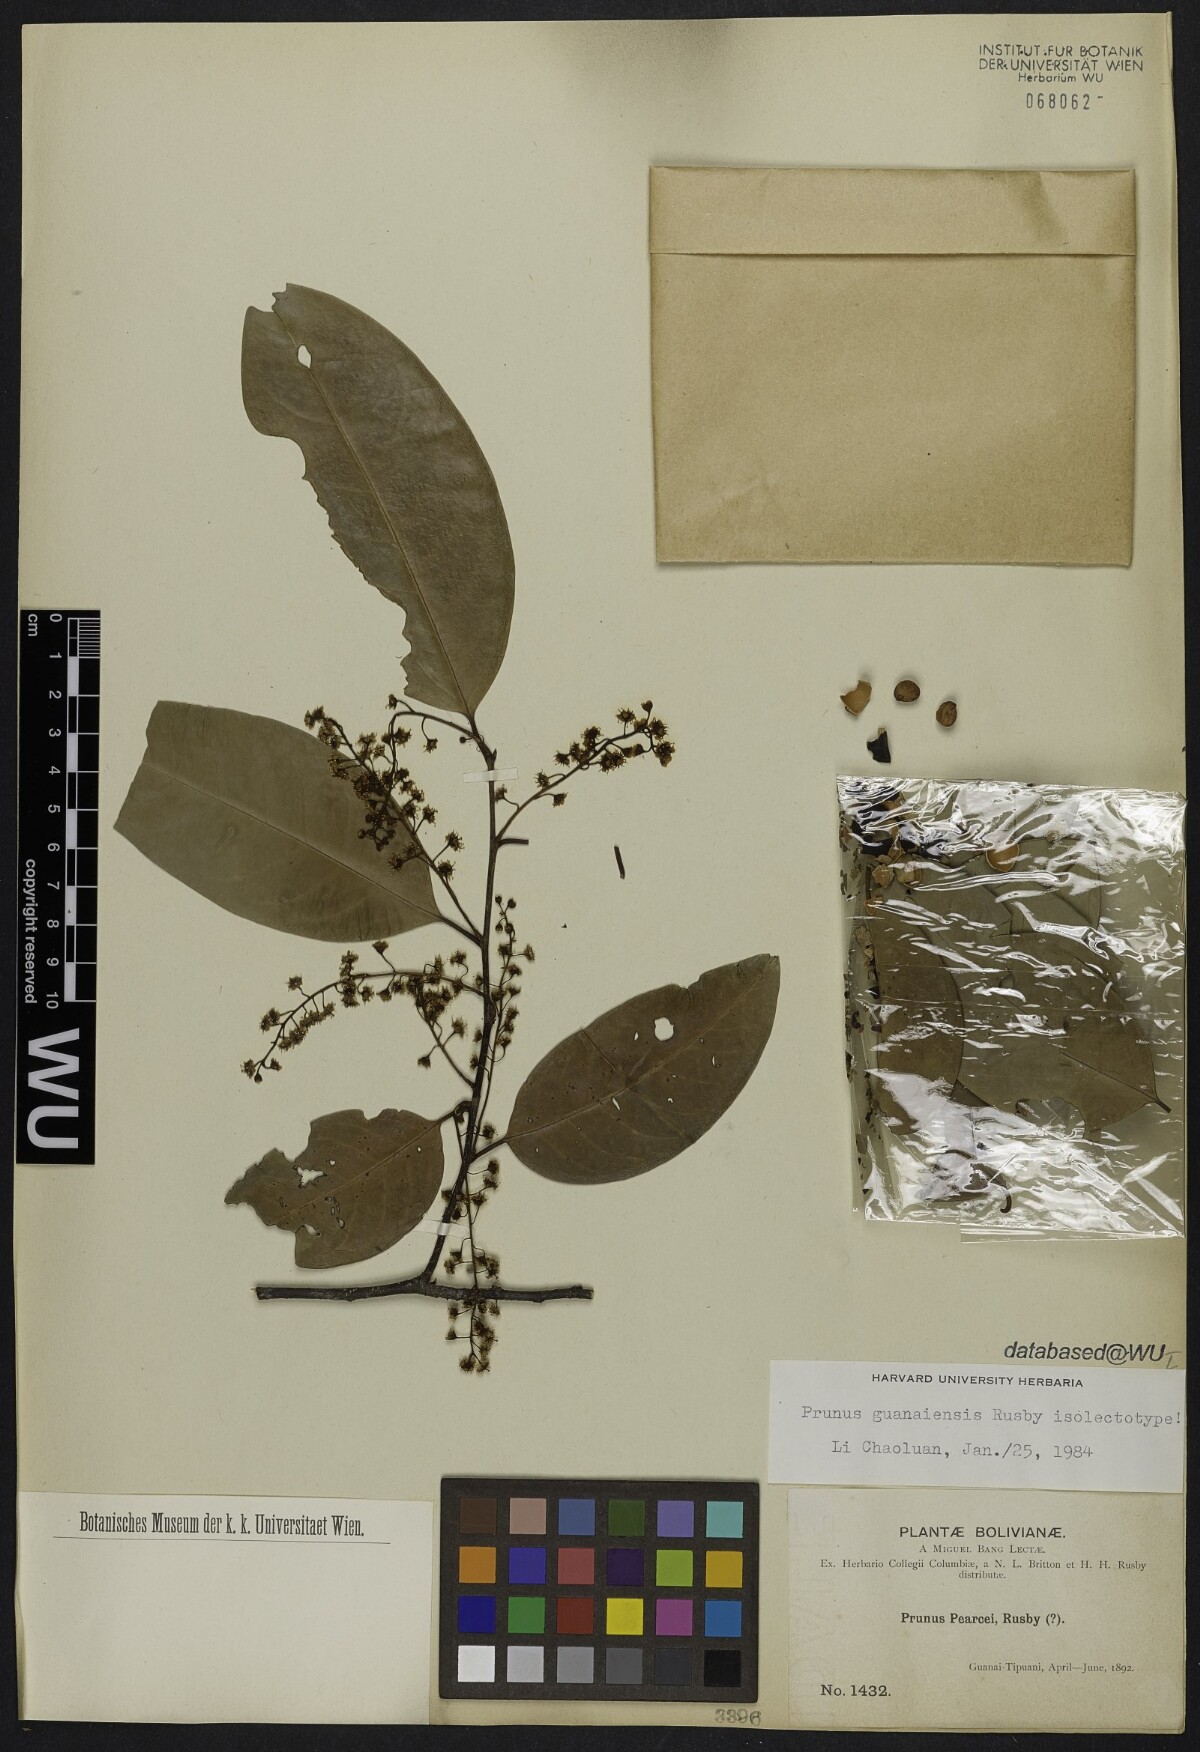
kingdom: Plantae
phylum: Tracheophyta
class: Magnoliopsida
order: Rosales
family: Rosaceae
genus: Prunus
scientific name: Prunus guanaiensis
